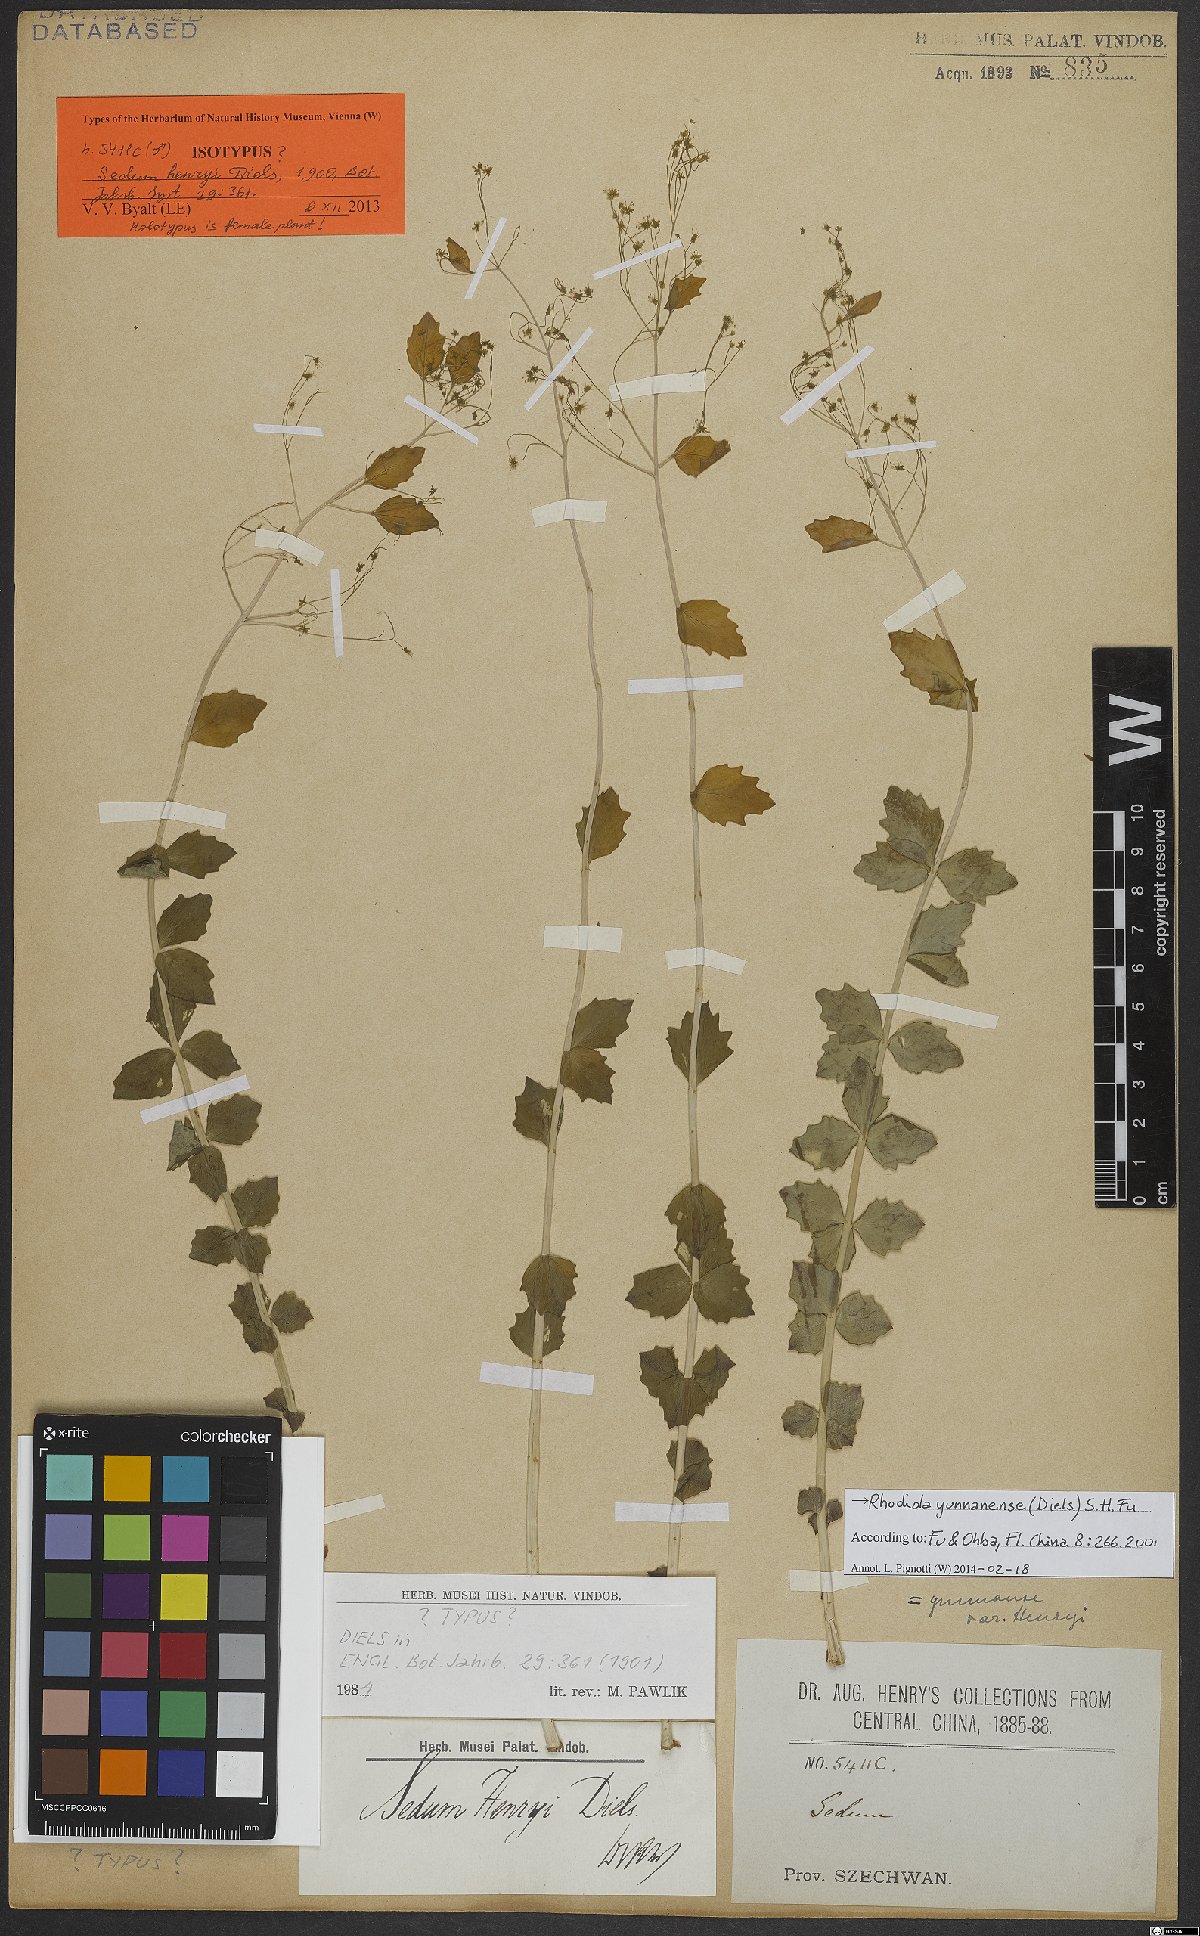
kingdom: Plantae
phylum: Tracheophyta
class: Magnoliopsida
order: Saxifragales
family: Crassulaceae
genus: Rhodiola
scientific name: Rhodiola yunnanensis
